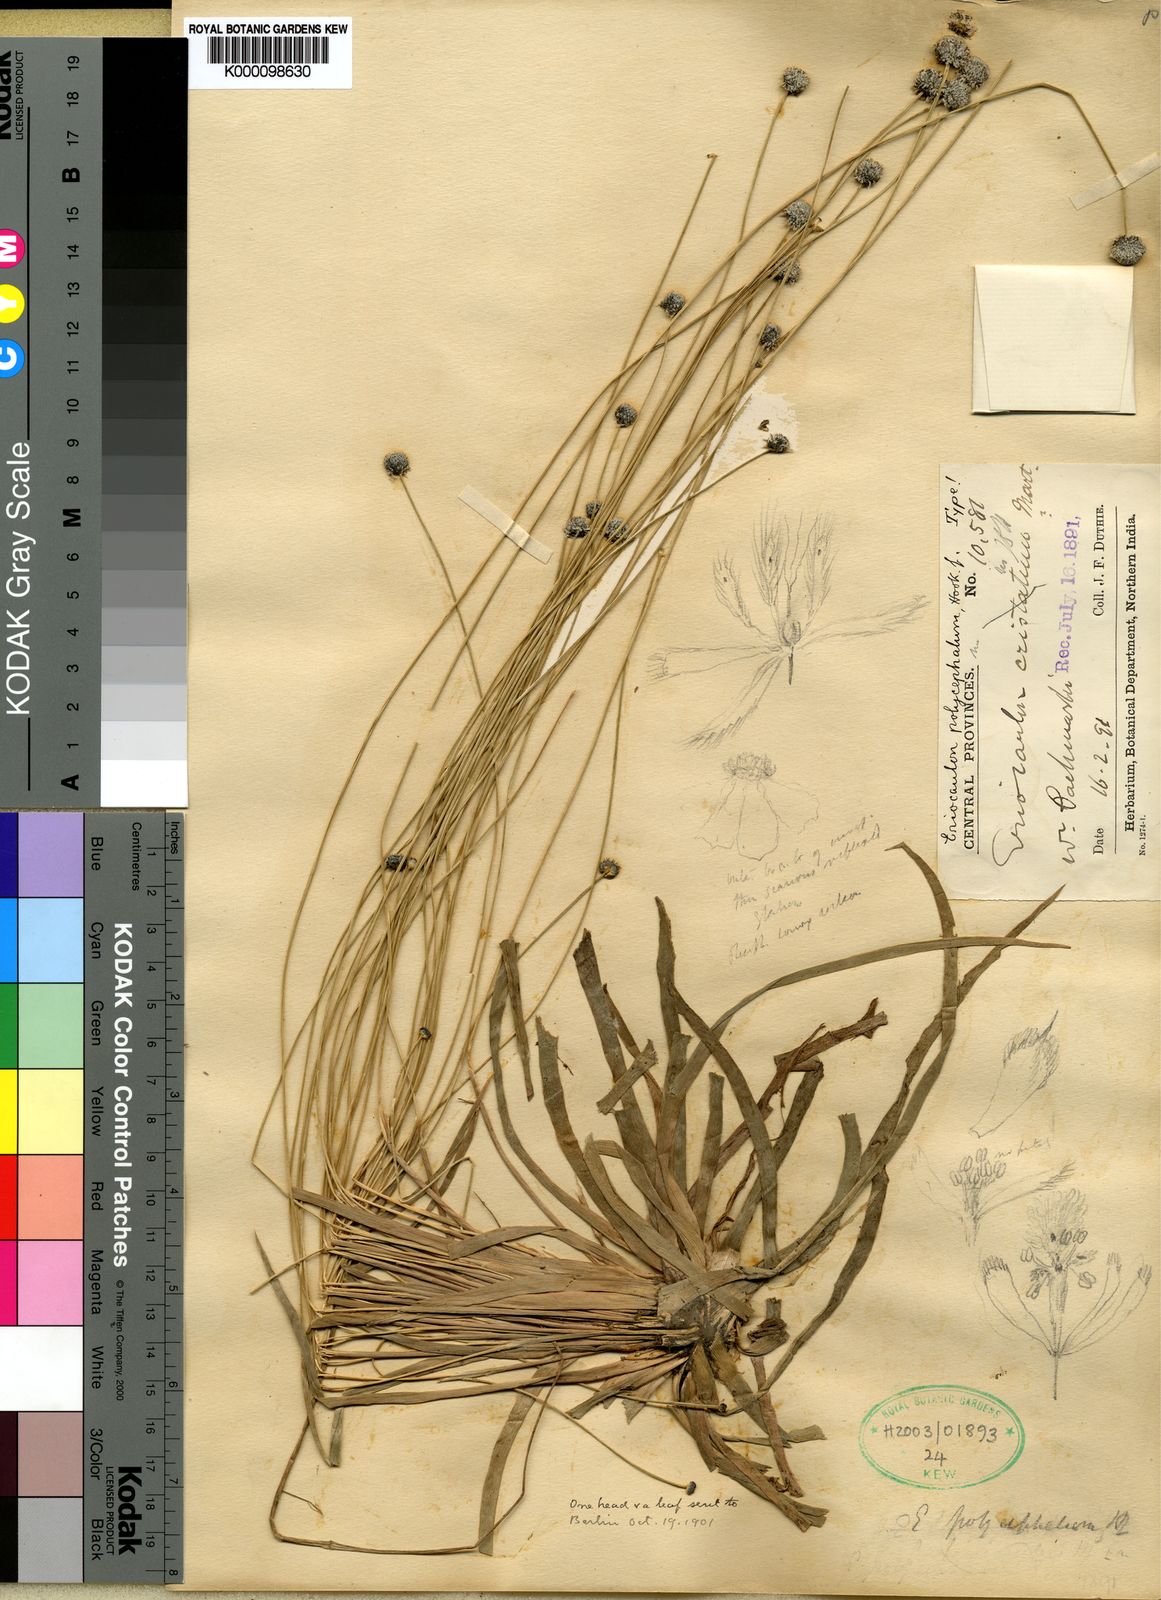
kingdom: Plantae
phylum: Tracheophyta
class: Liliopsida
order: Poales
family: Eriocaulaceae
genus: Eriocaulon
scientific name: Eriocaulon longicuspe
